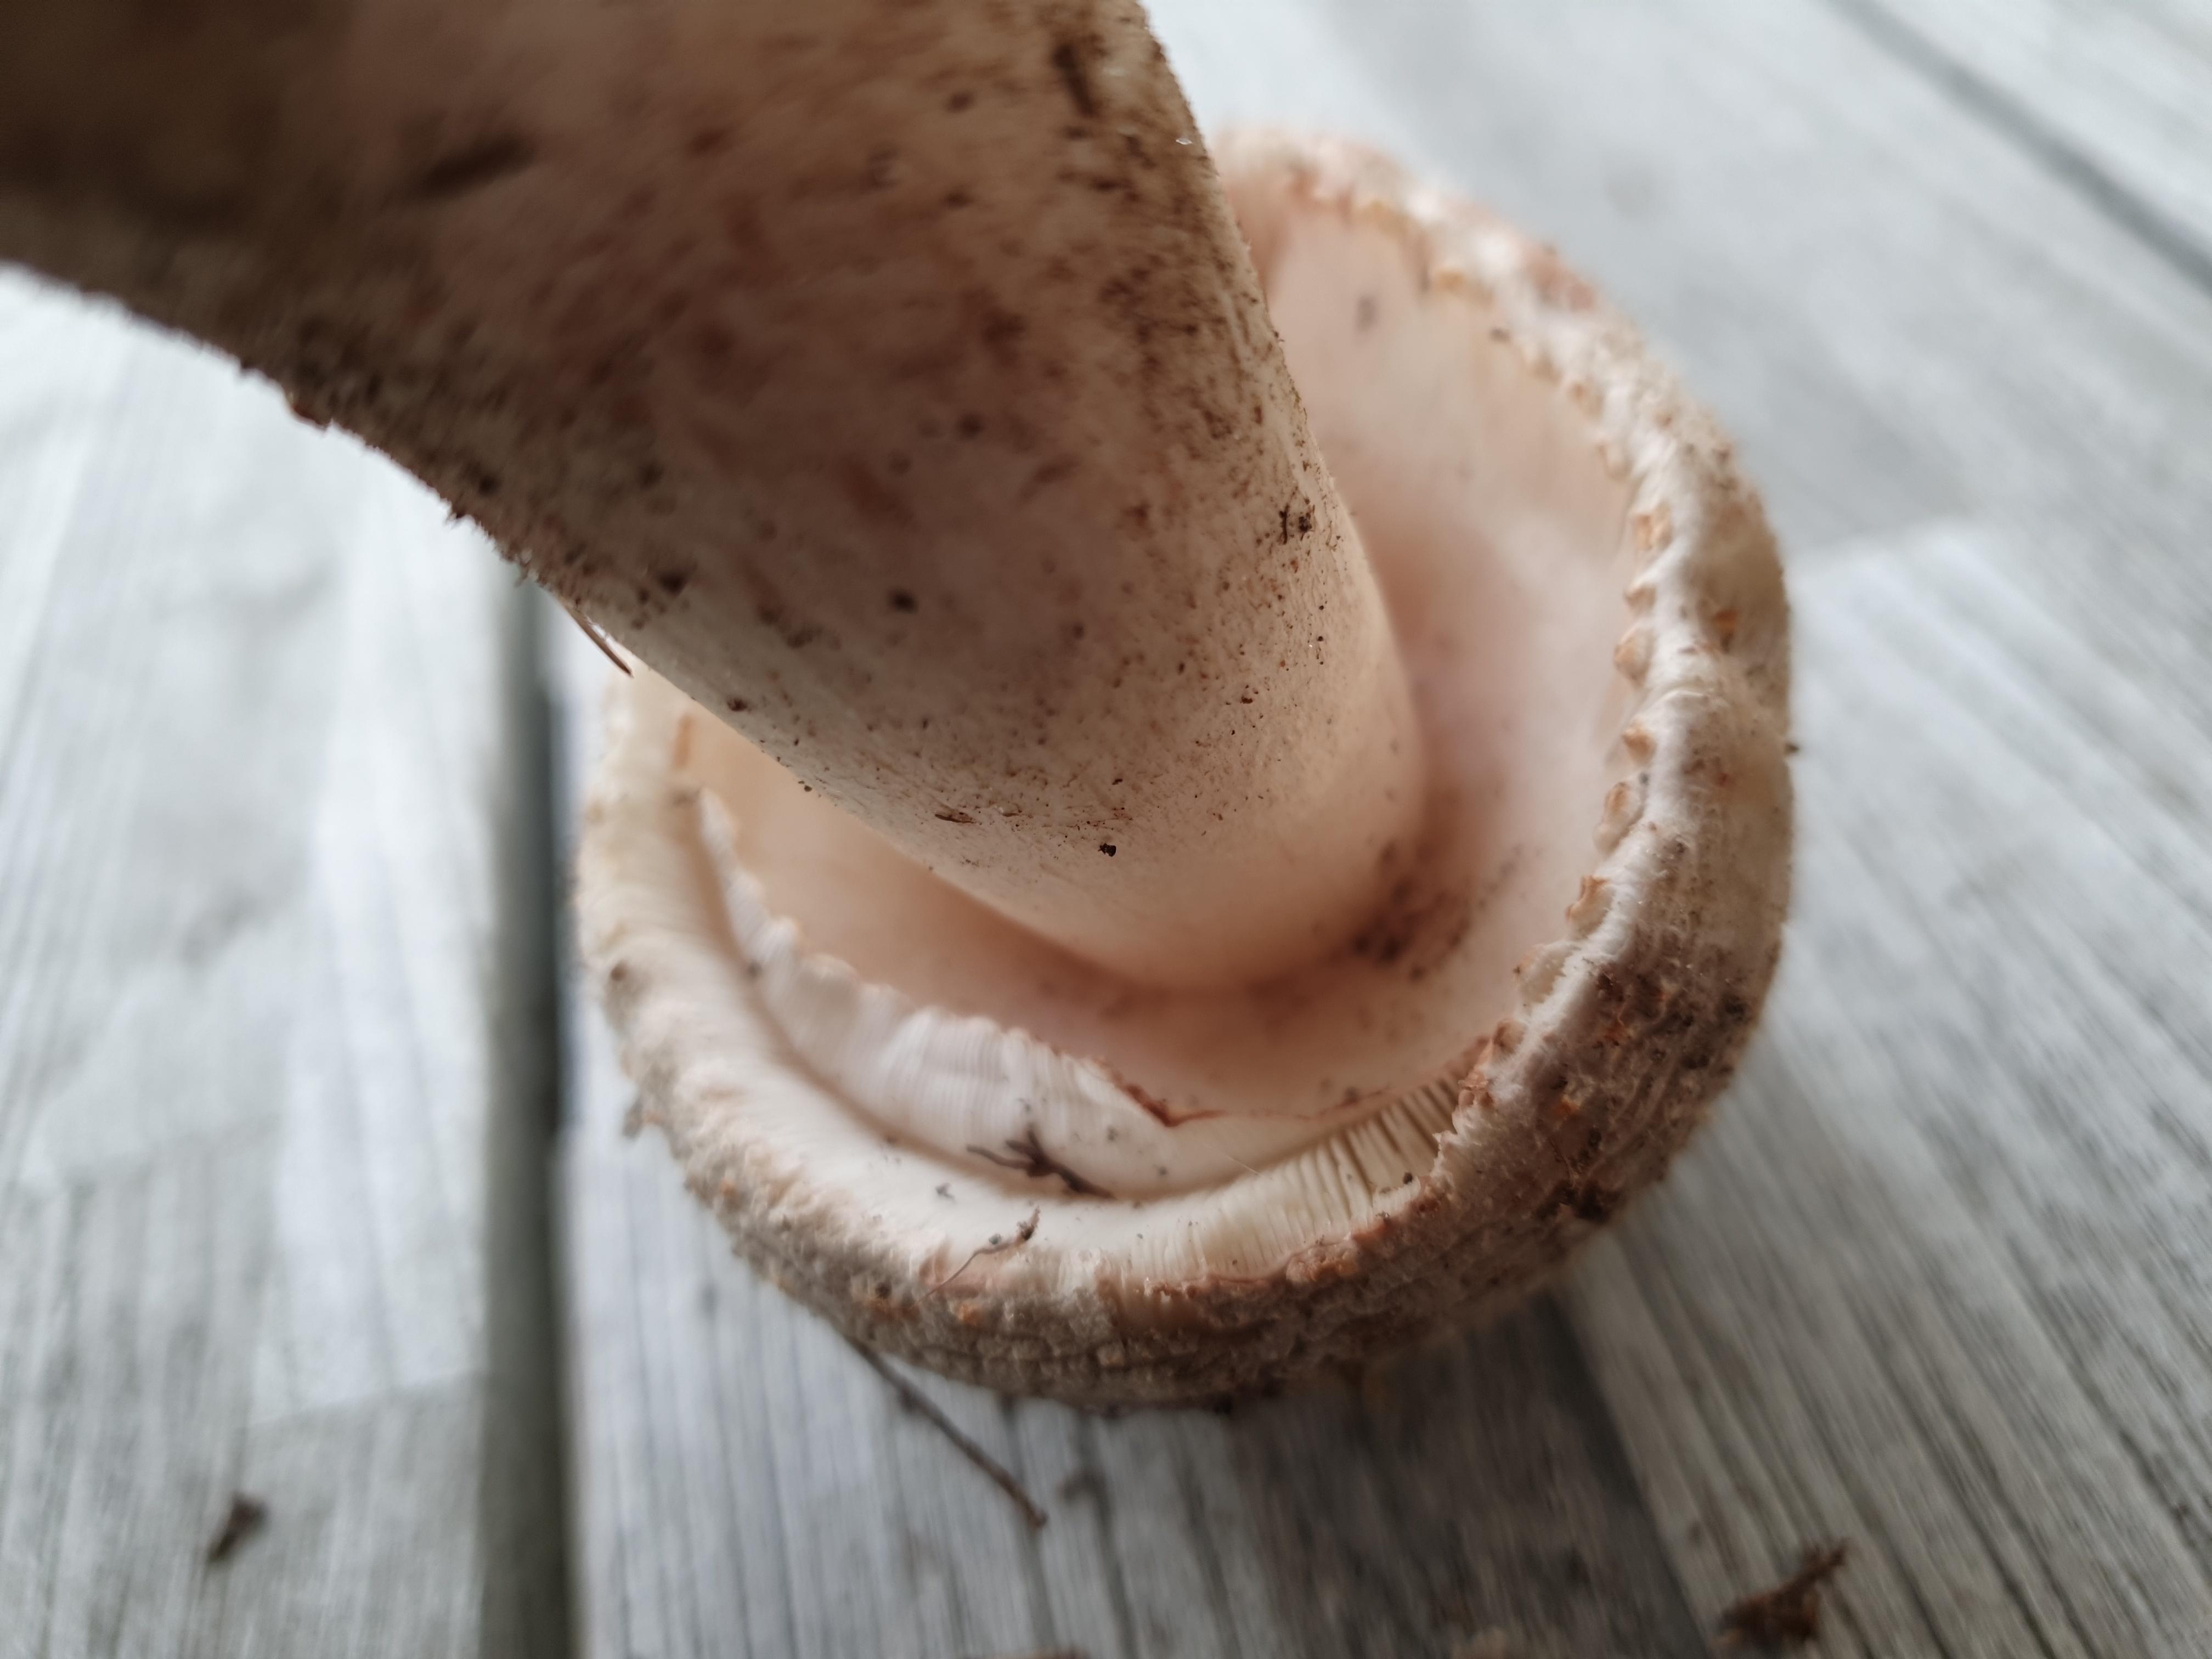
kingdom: Fungi
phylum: Basidiomycota
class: Agaricomycetes
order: Agaricales
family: Amanitaceae
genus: Amanita
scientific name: Amanita rubescens
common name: rødmende fluesvamp
